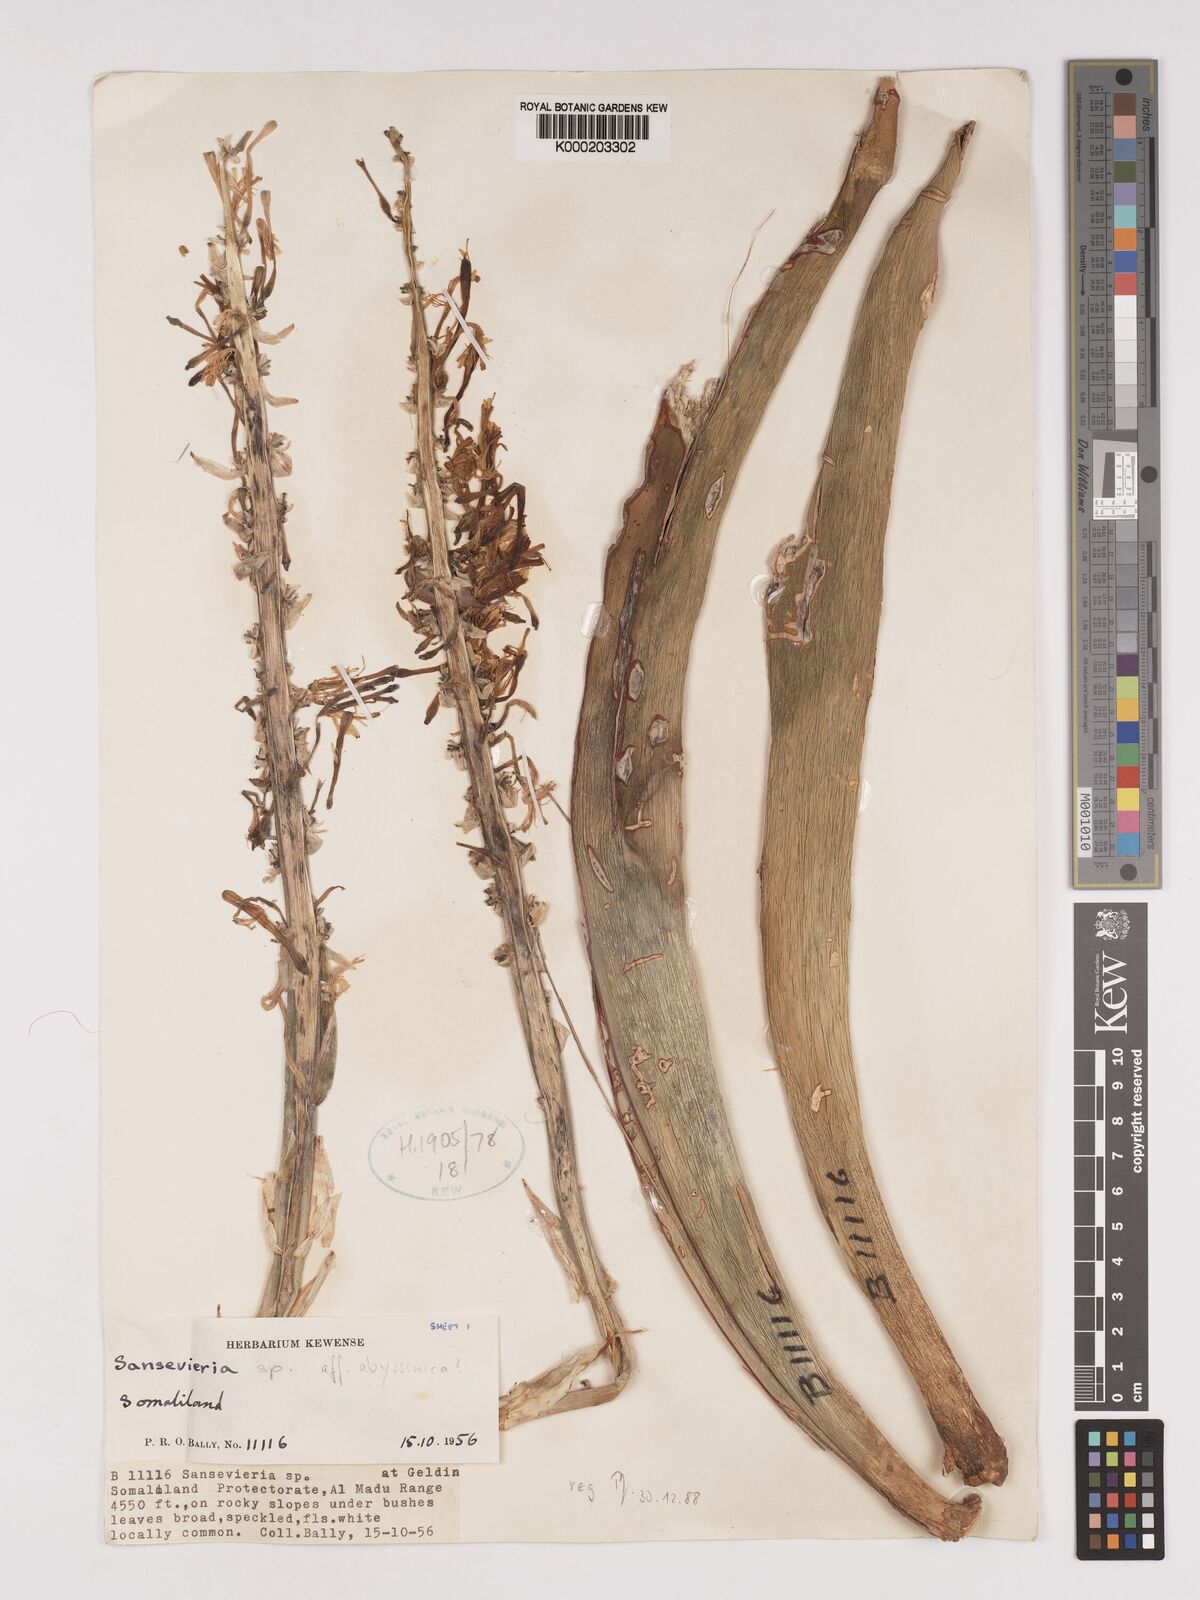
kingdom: Plantae
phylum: Tracheophyta
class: Liliopsida
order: Asparagales
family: Asparagaceae
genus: Dracaena
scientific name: Dracaena forskaliana
